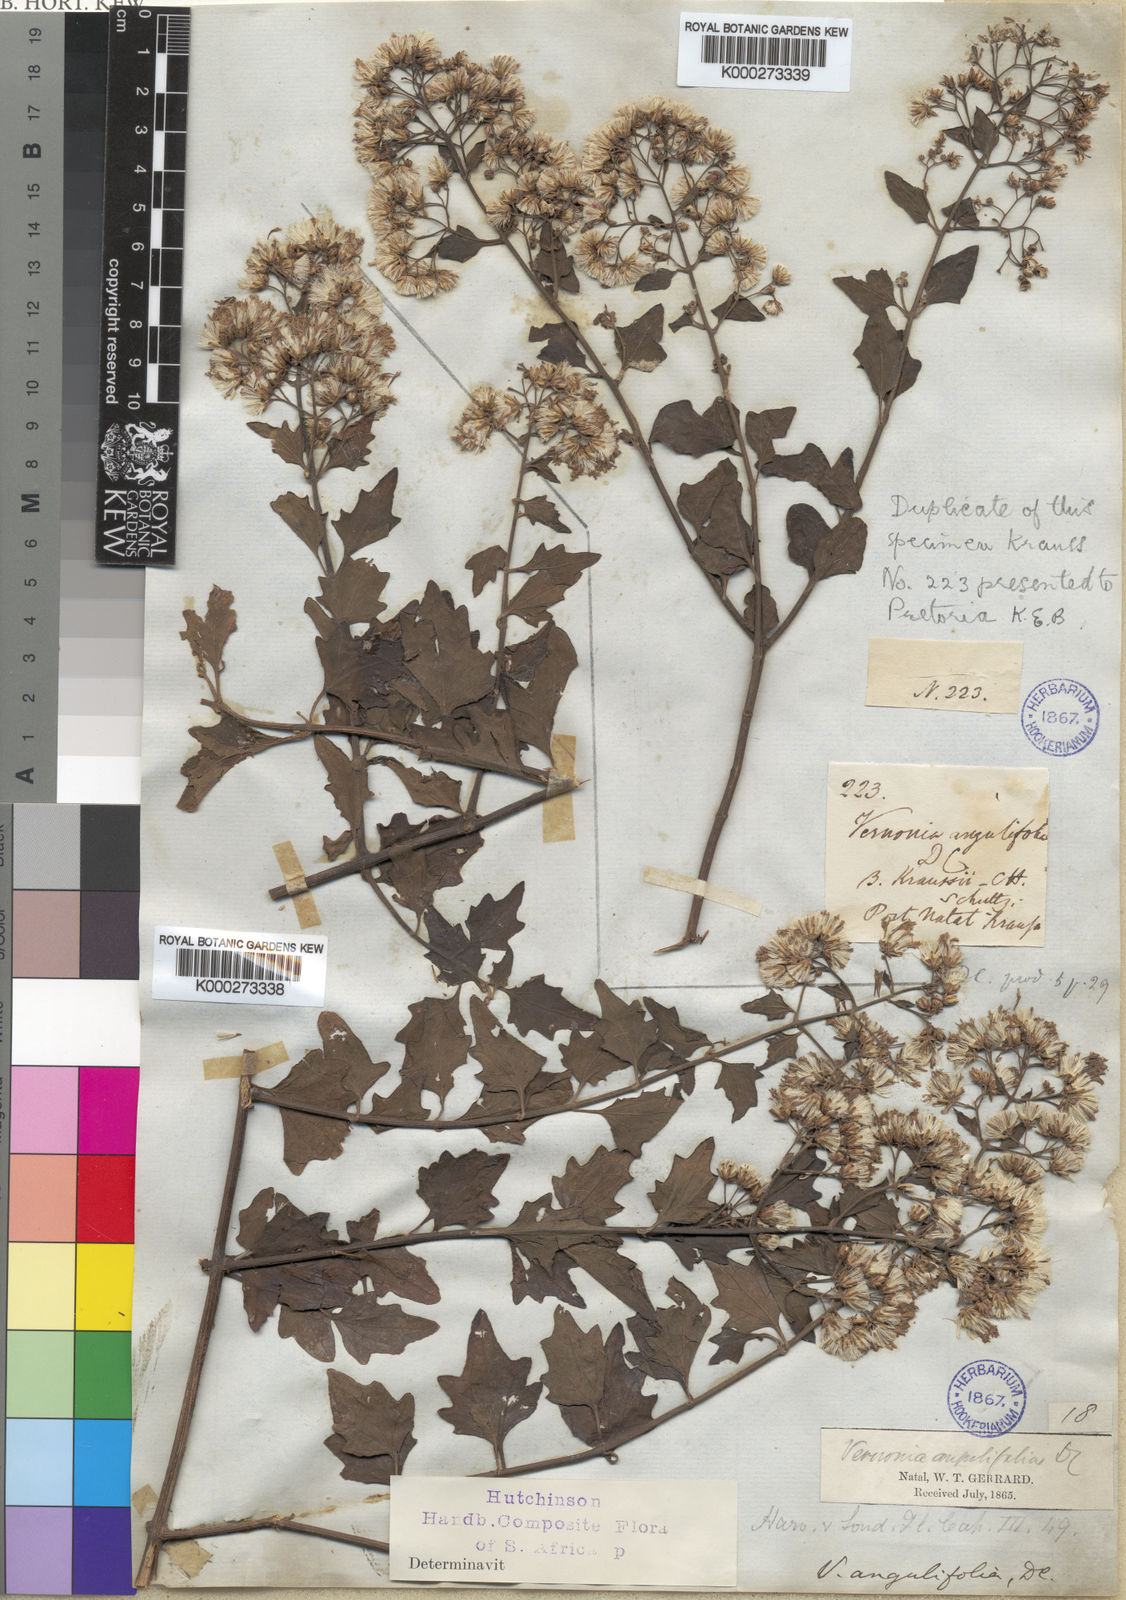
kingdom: Plantae
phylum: Tracheophyta
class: Magnoliopsida
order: Asterales
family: Asteraceae
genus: Distephanus
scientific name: Distephanus angulifolius
